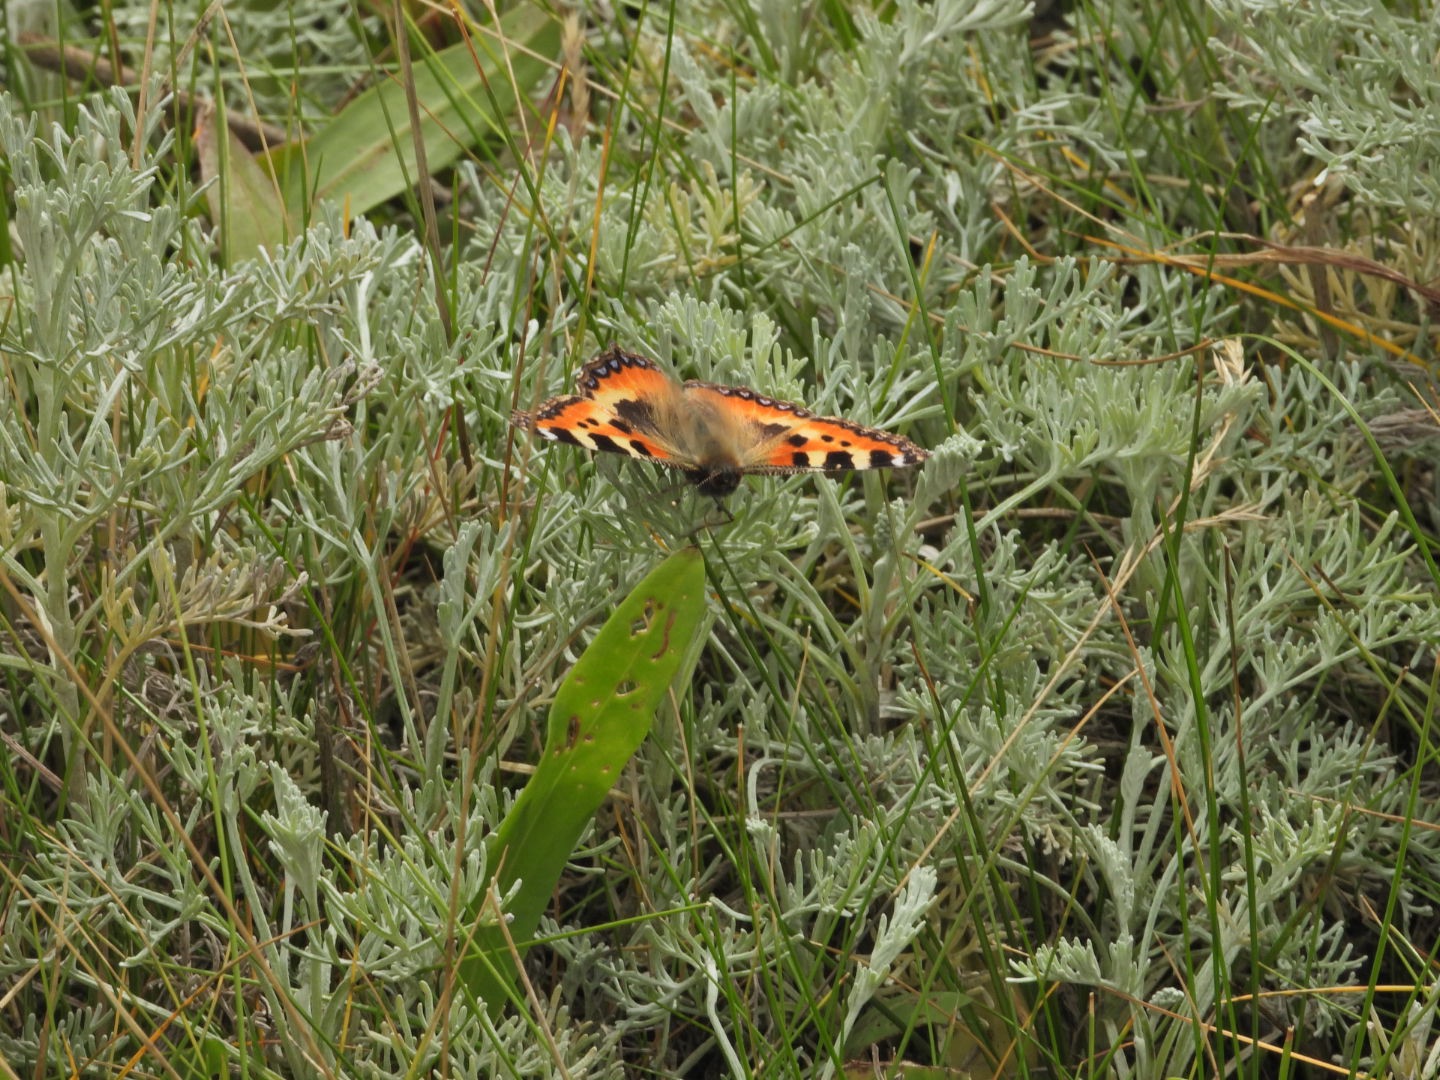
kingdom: Animalia
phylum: Arthropoda
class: Insecta
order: Lepidoptera
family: Nymphalidae
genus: Aglais
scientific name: Aglais urticae
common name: Nældens takvinge
